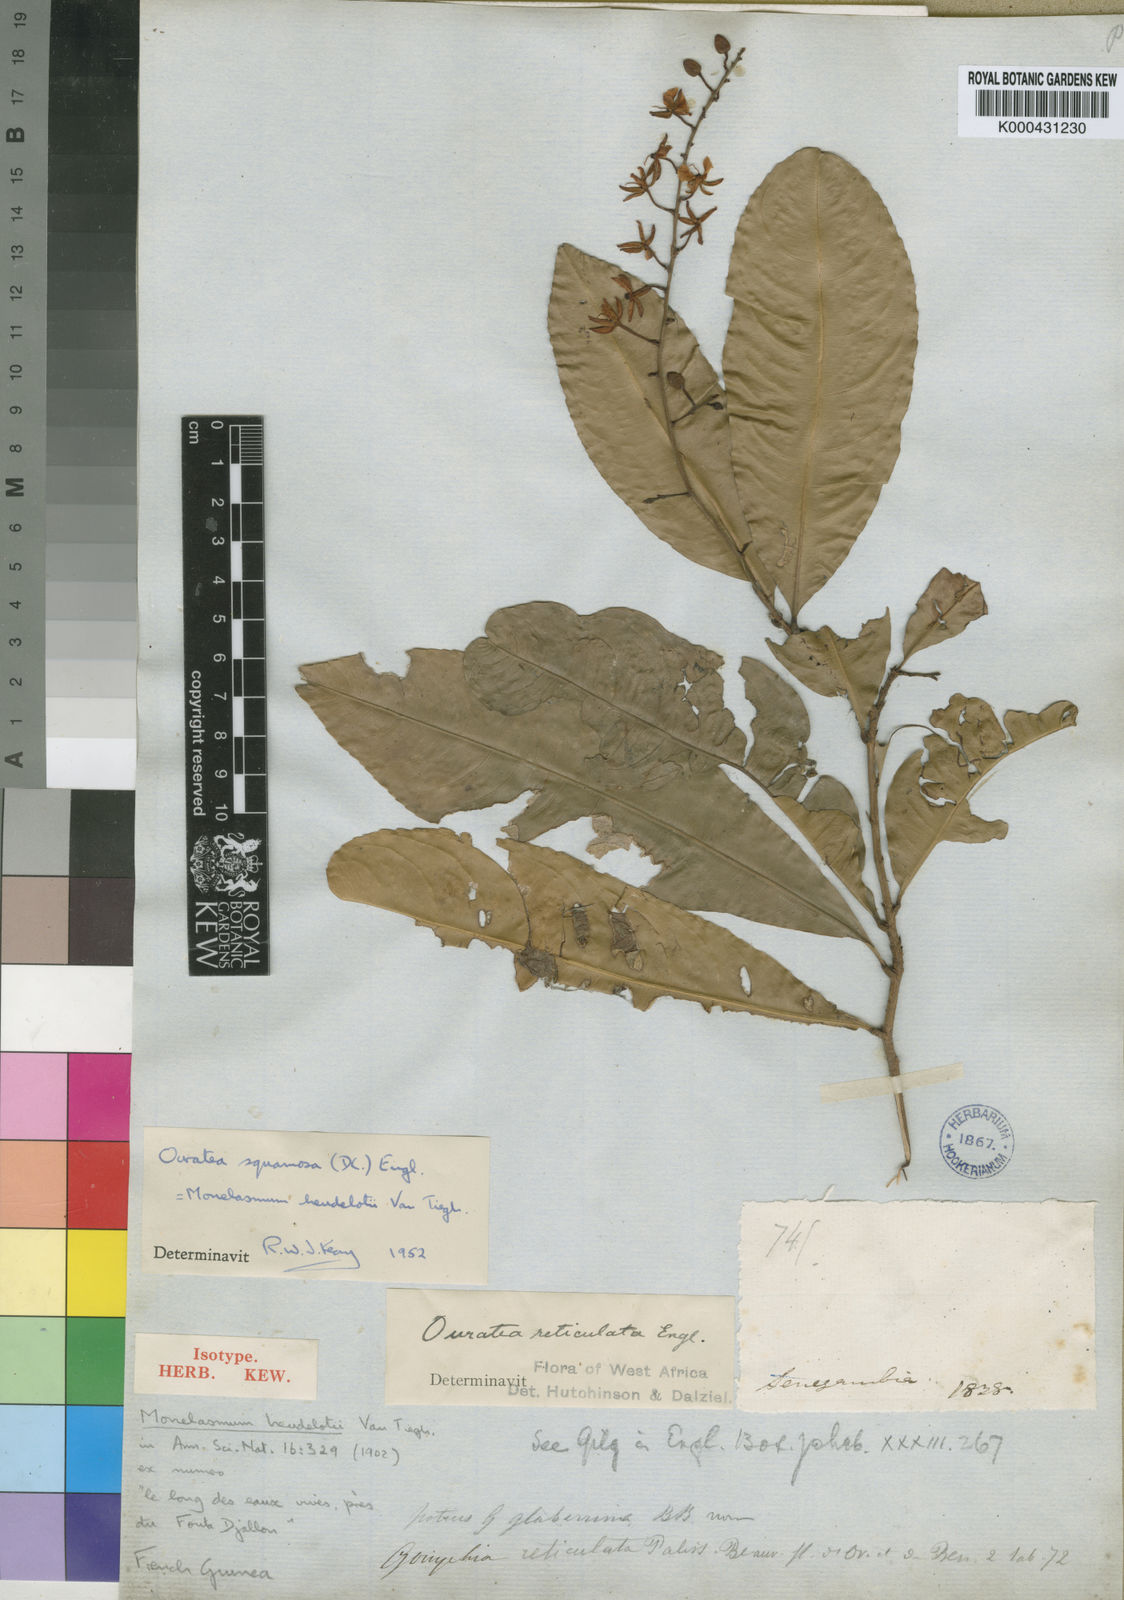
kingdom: Plantae
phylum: Tracheophyta
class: Magnoliopsida
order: Malpighiales
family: Ochnaceae
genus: Campylospermum
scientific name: Campylospermum squamosum
